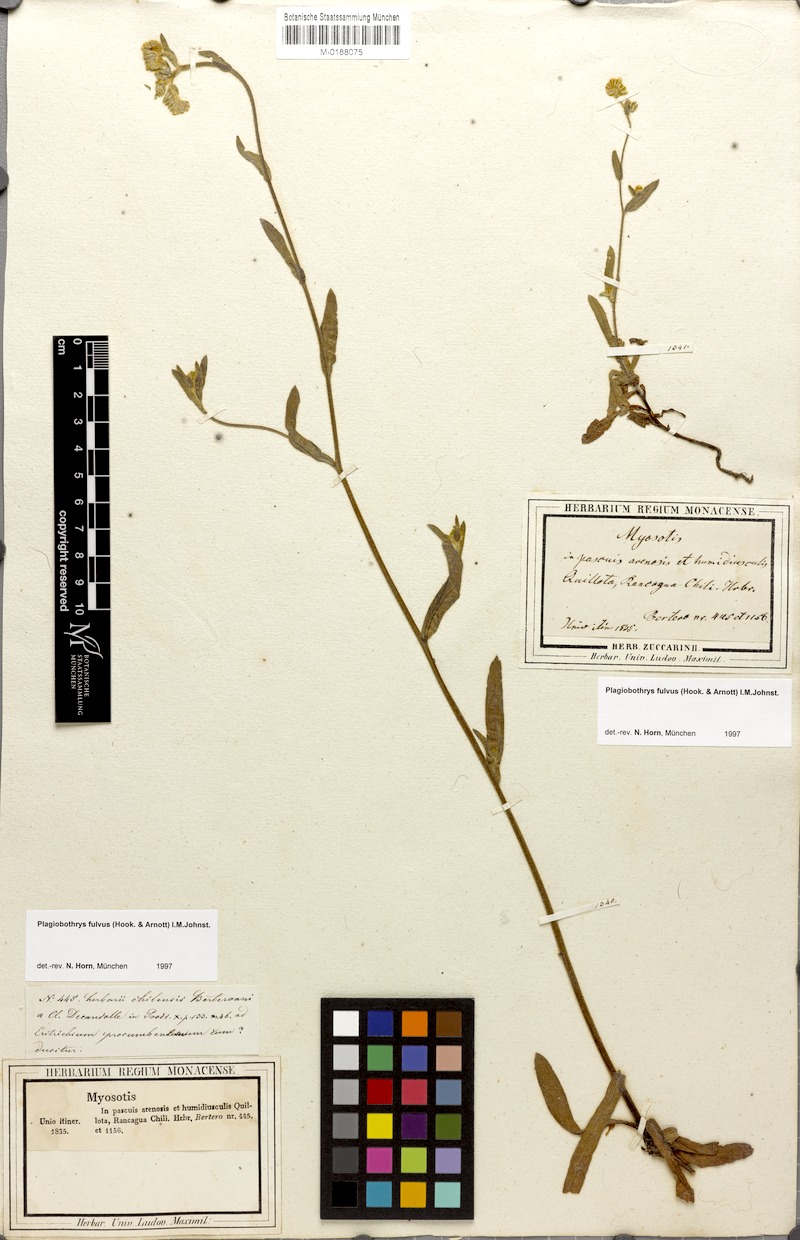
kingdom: Plantae
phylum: Tracheophyta
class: Magnoliopsida
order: Boraginales
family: Boraginaceae
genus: Plagiobothrys
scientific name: Plagiobothrys fulvus
